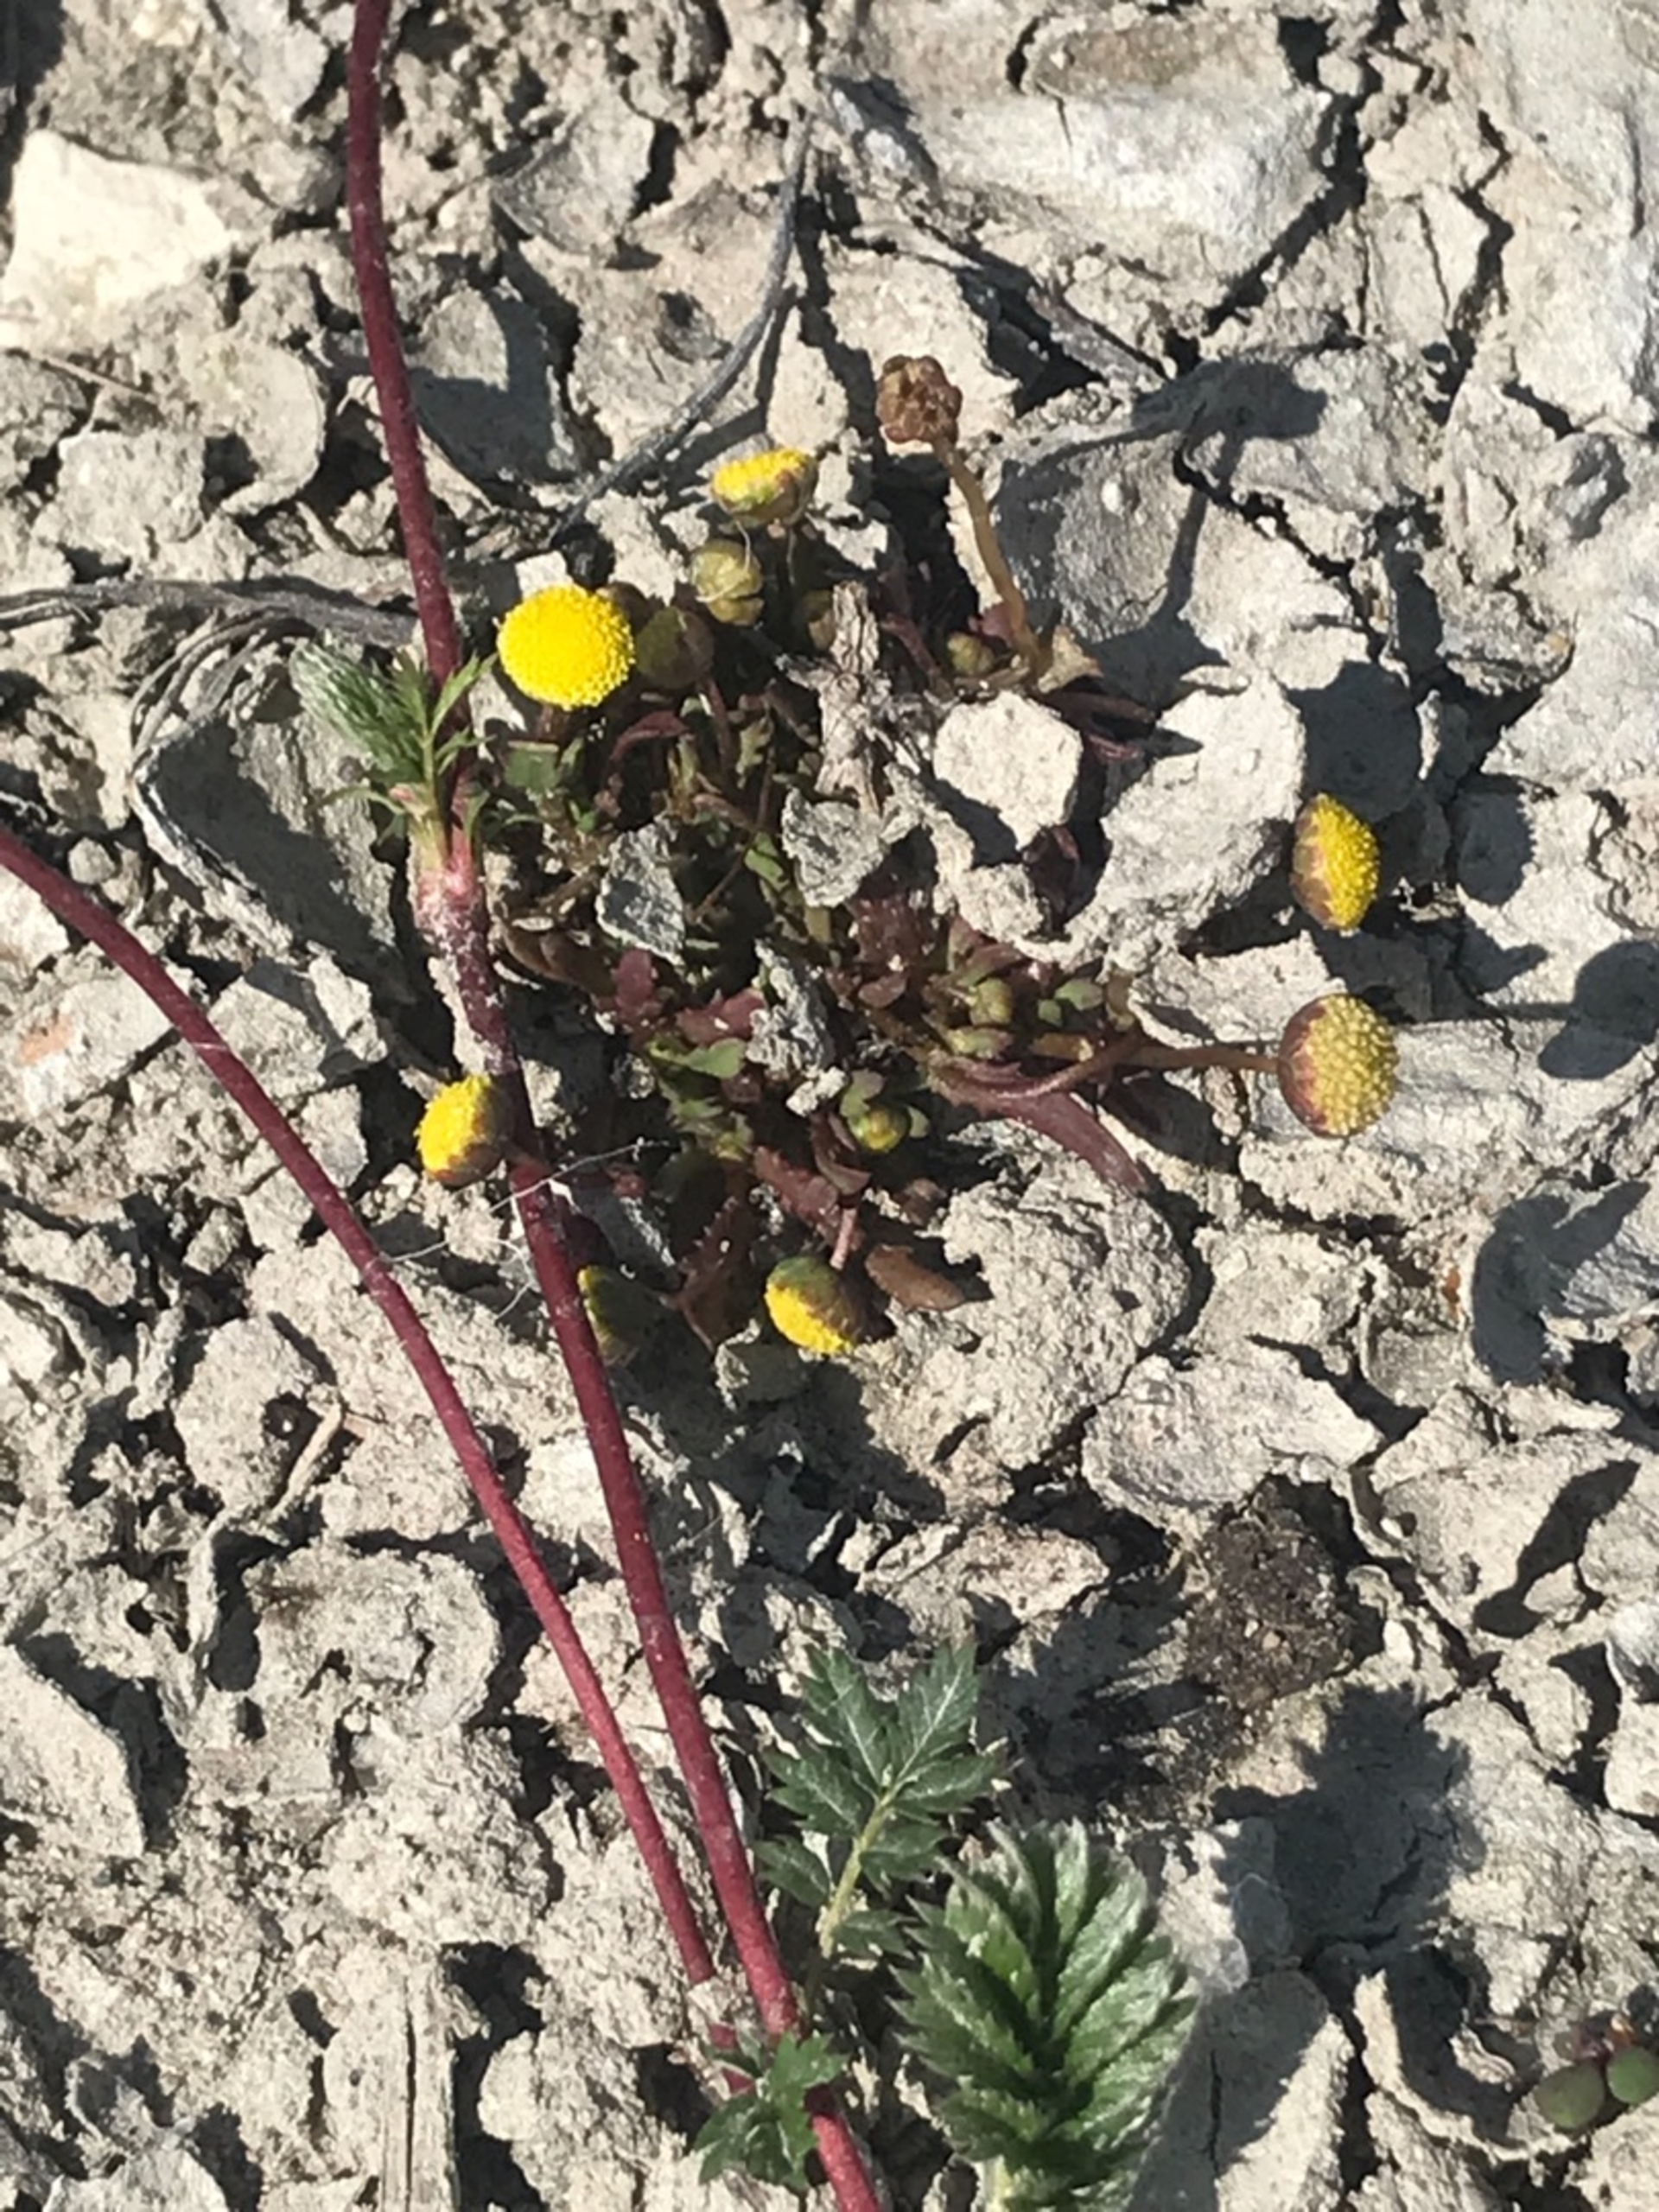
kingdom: Plantae
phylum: Tracheophyta
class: Magnoliopsida
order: Asterales
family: Asteraceae
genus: Cotula
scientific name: Cotula coronopifolia
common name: Firkløft
